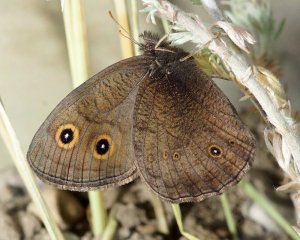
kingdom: Animalia
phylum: Arthropoda
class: Insecta
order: Lepidoptera
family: Nymphalidae
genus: Cercyonis
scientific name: Cercyonis pegala
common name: Common Wood-Nymph
